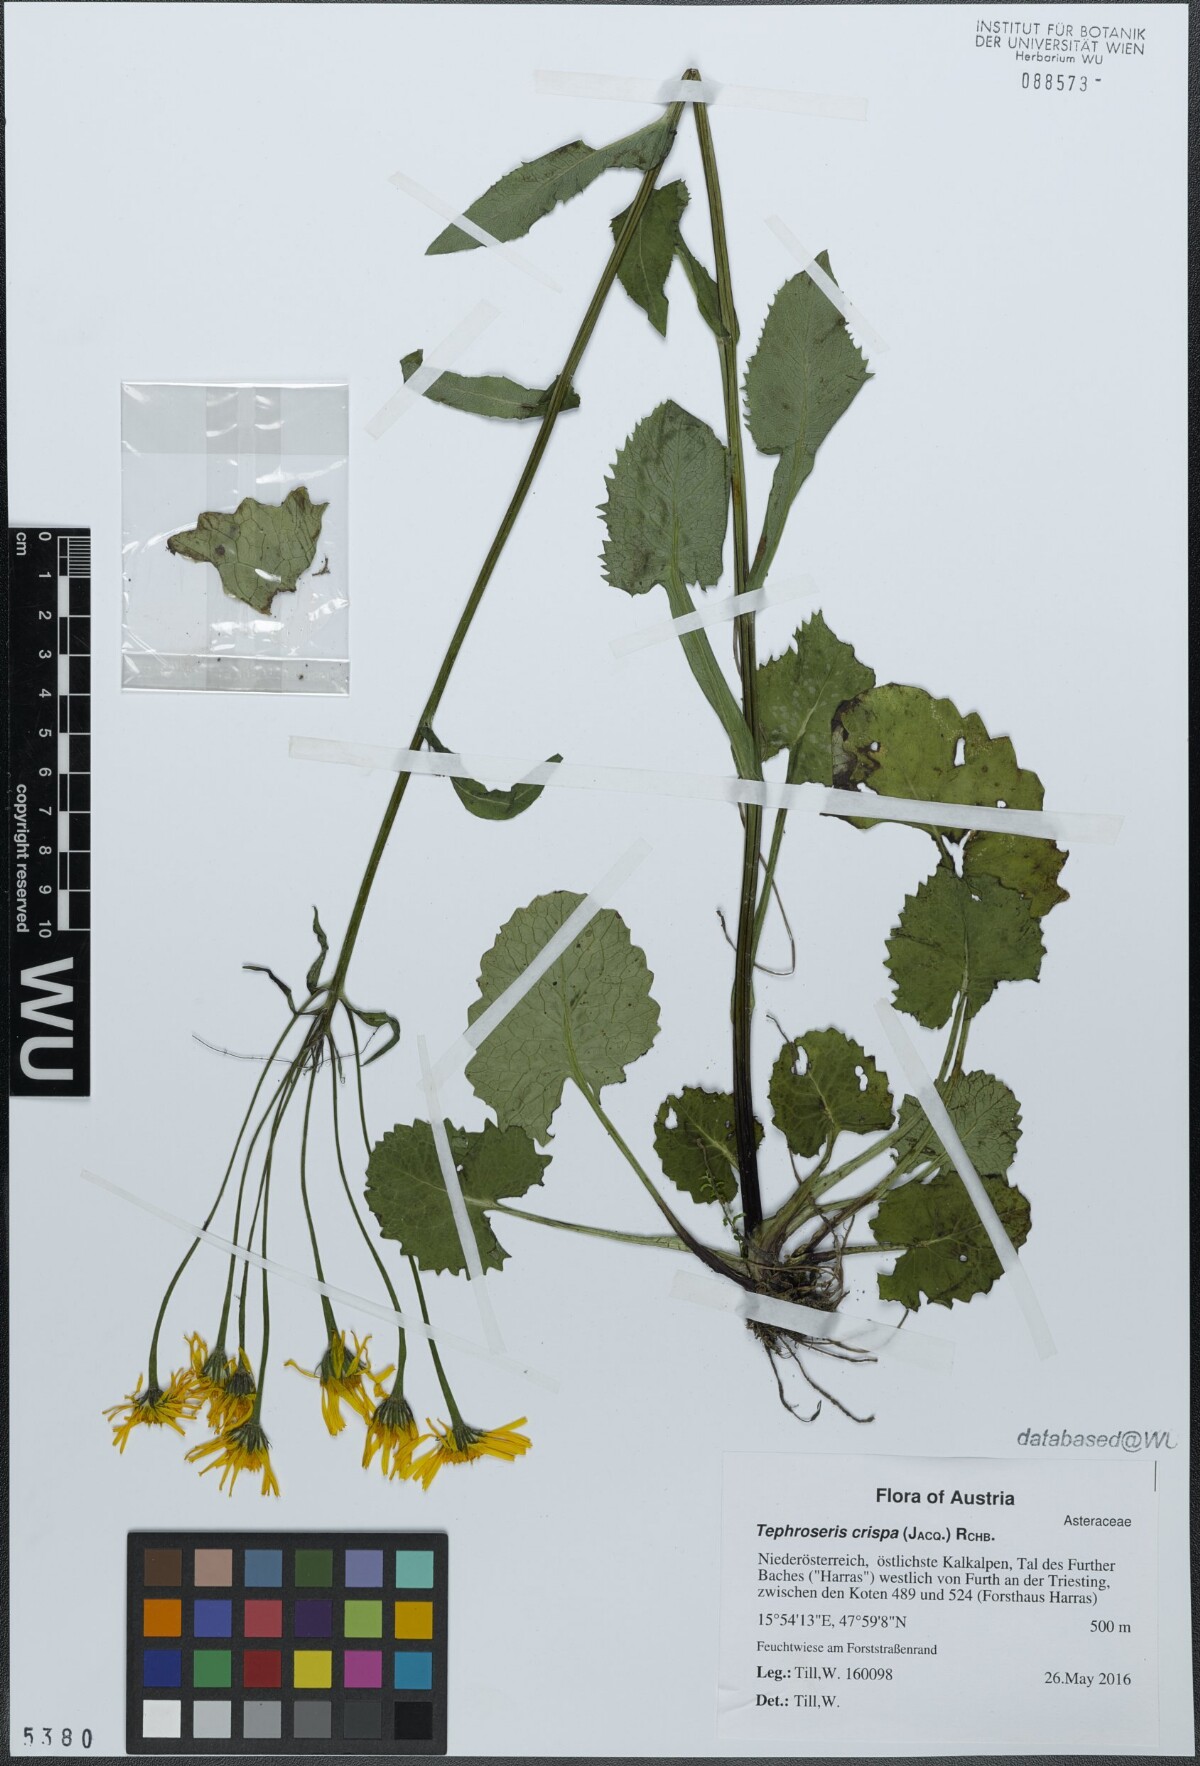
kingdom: Plantae
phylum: Tracheophyta
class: Magnoliopsida
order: Asterales
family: Asteraceae
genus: Tephroseris
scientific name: Tephroseris crispa
